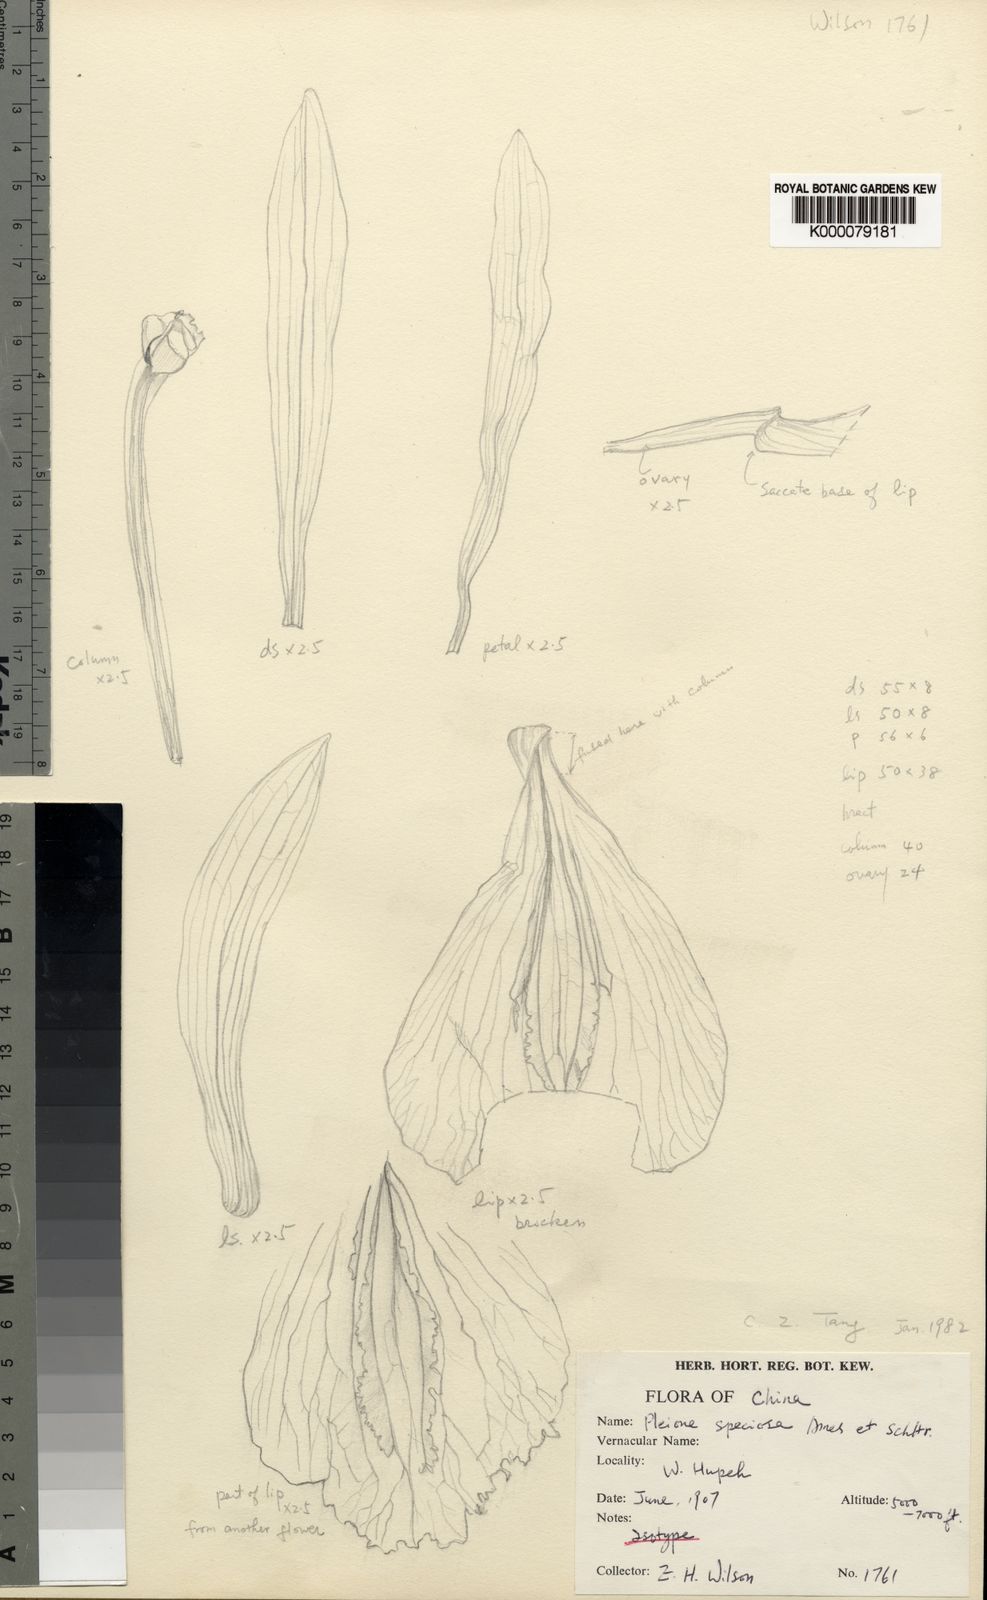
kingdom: Plantae
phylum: Tracheophyta
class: Liliopsida
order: Asparagales
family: Orchidaceae
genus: Pleione
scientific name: Pleione pleionoides
